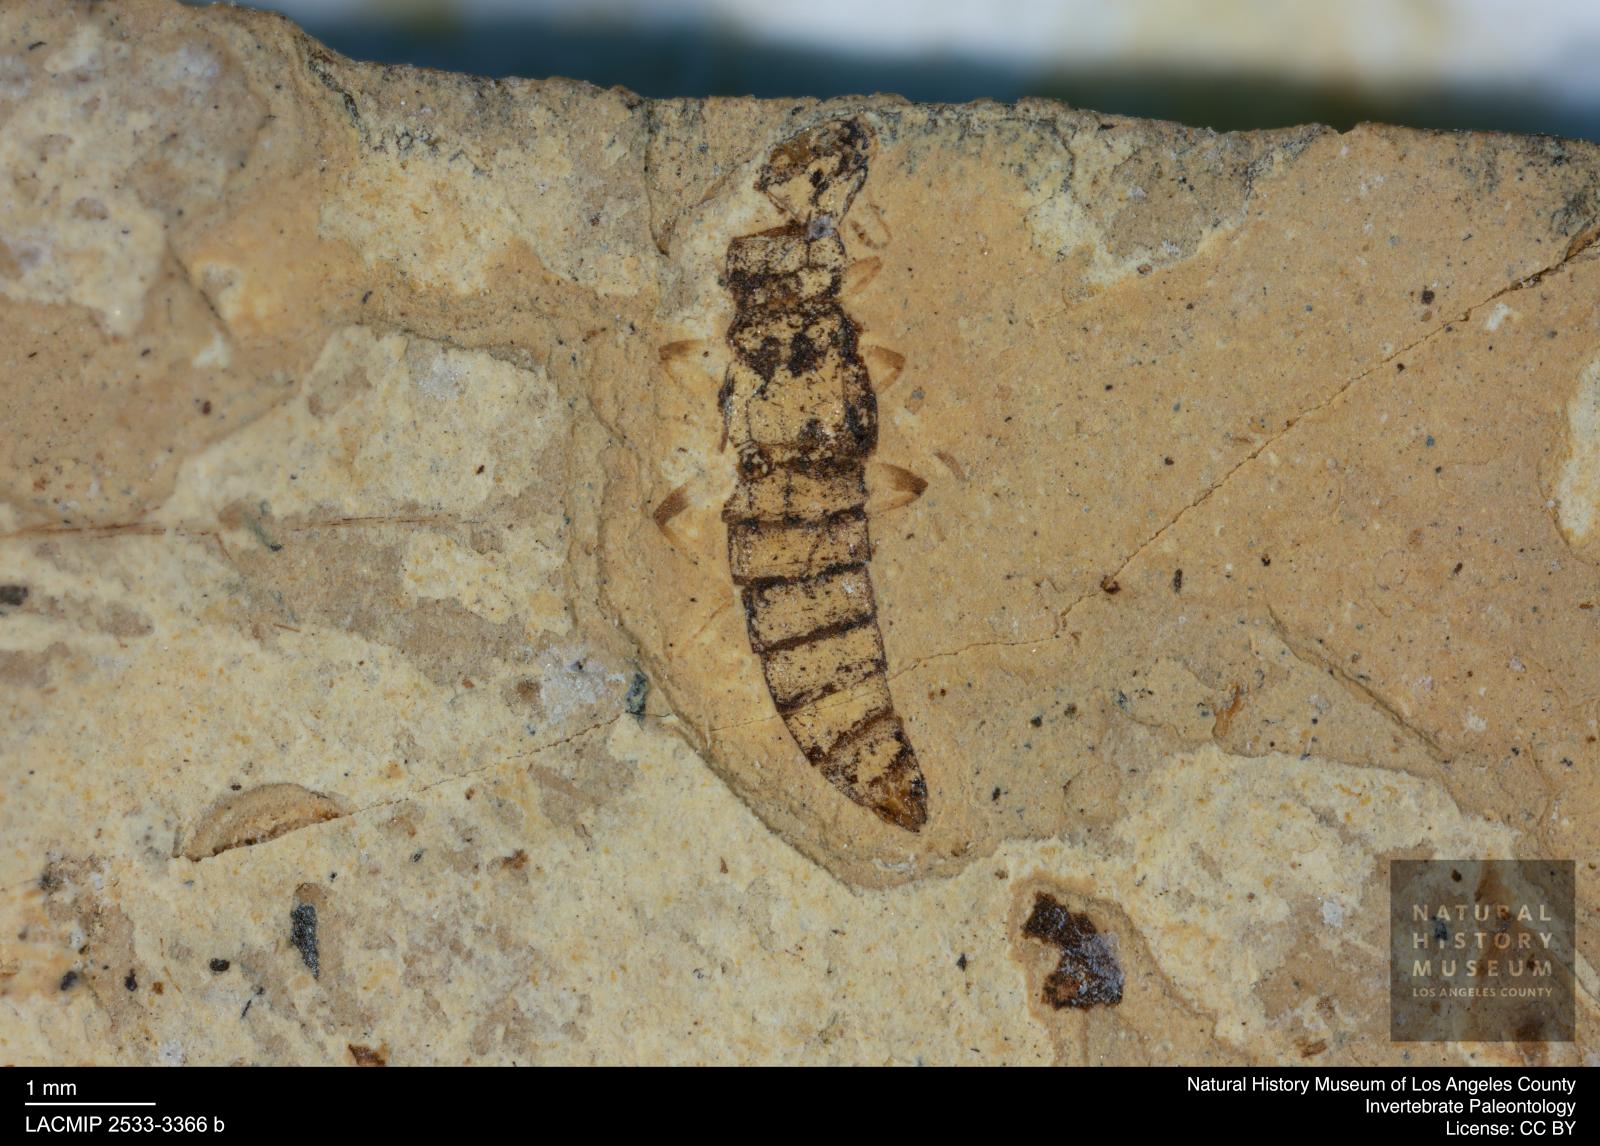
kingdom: Animalia
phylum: Arthropoda
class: Insecta
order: Coleoptera
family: Staphylinidae
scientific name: Staphylinidae
